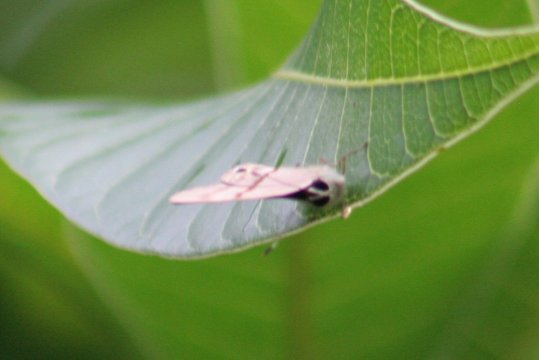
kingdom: Animalia
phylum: Arthropoda
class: Insecta
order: Lepidoptera
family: Lycaenidae
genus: Euselasia
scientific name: Euselasia
